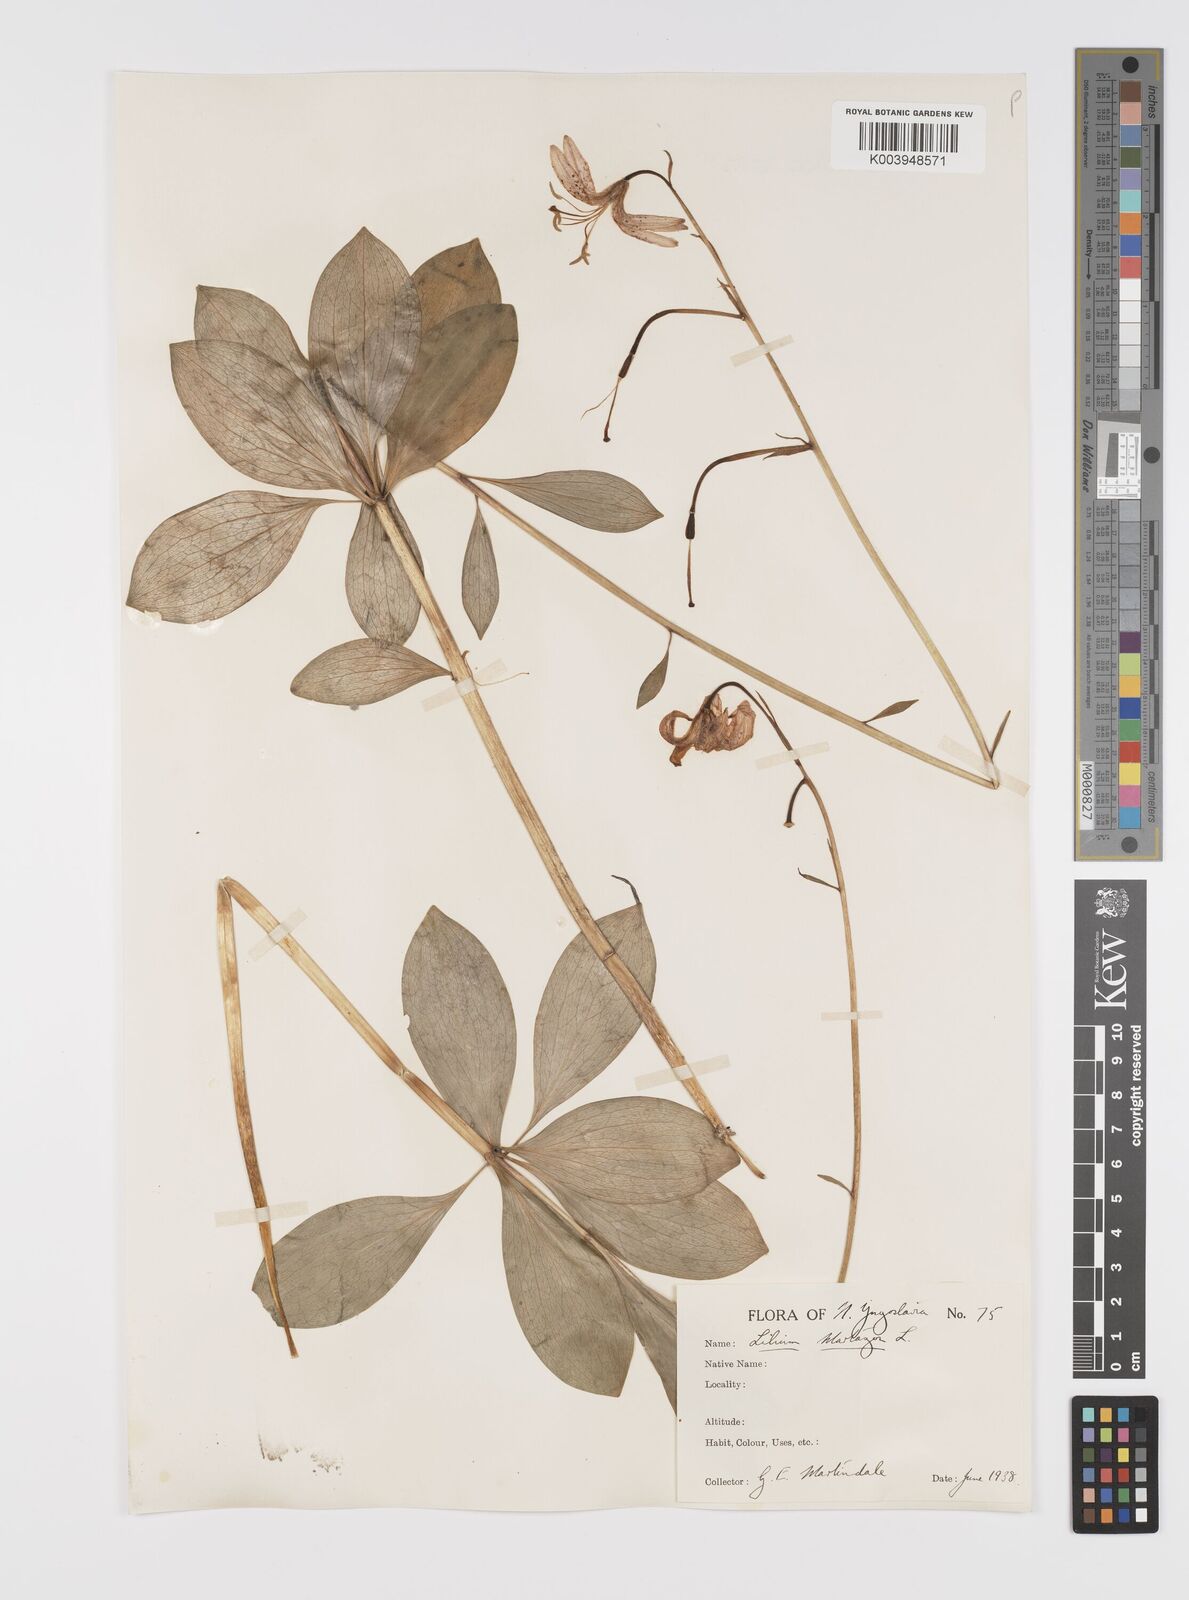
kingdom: Plantae
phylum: Tracheophyta
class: Liliopsida
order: Liliales
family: Liliaceae
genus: Lilium
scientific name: Lilium martagon
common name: Martagon lily
